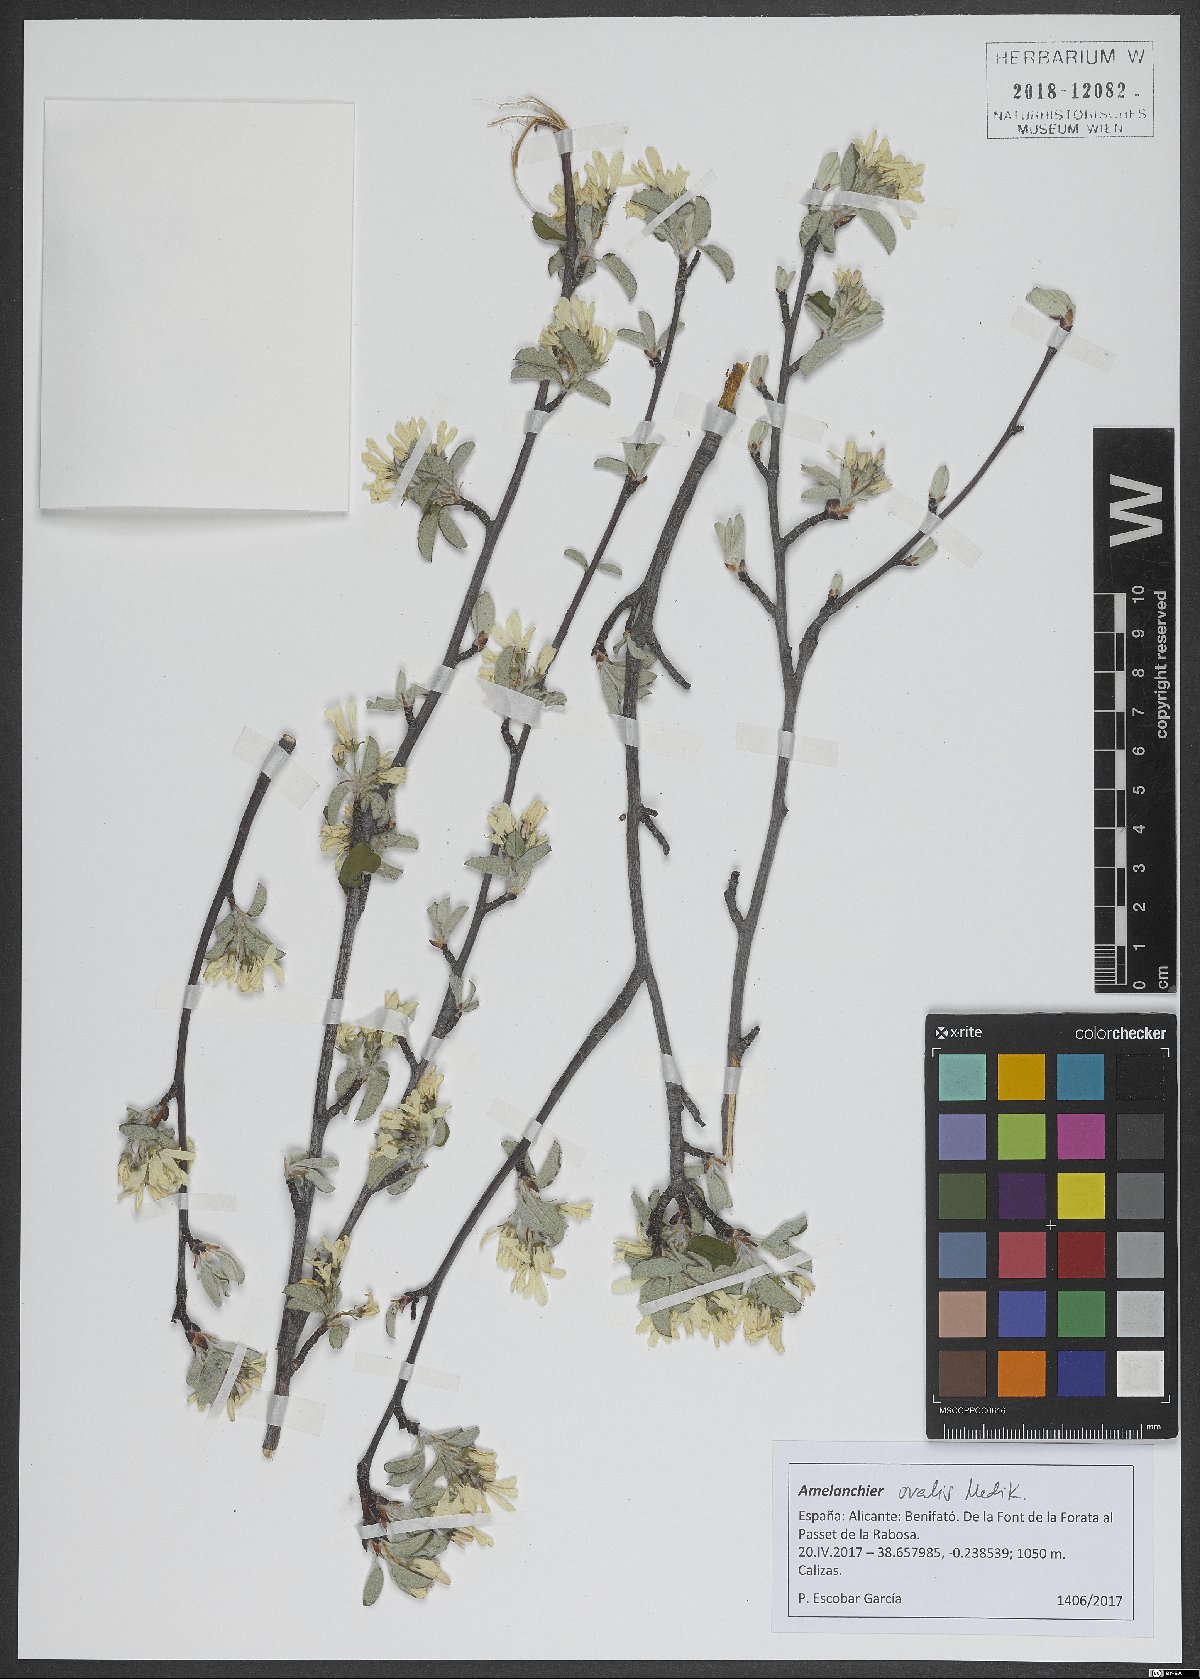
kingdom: Plantae
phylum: Tracheophyta
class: Magnoliopsida
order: Rosales
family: Rosaceae
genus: Amelanchier
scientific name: Amelanchier ovalis
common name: Serviceberry
